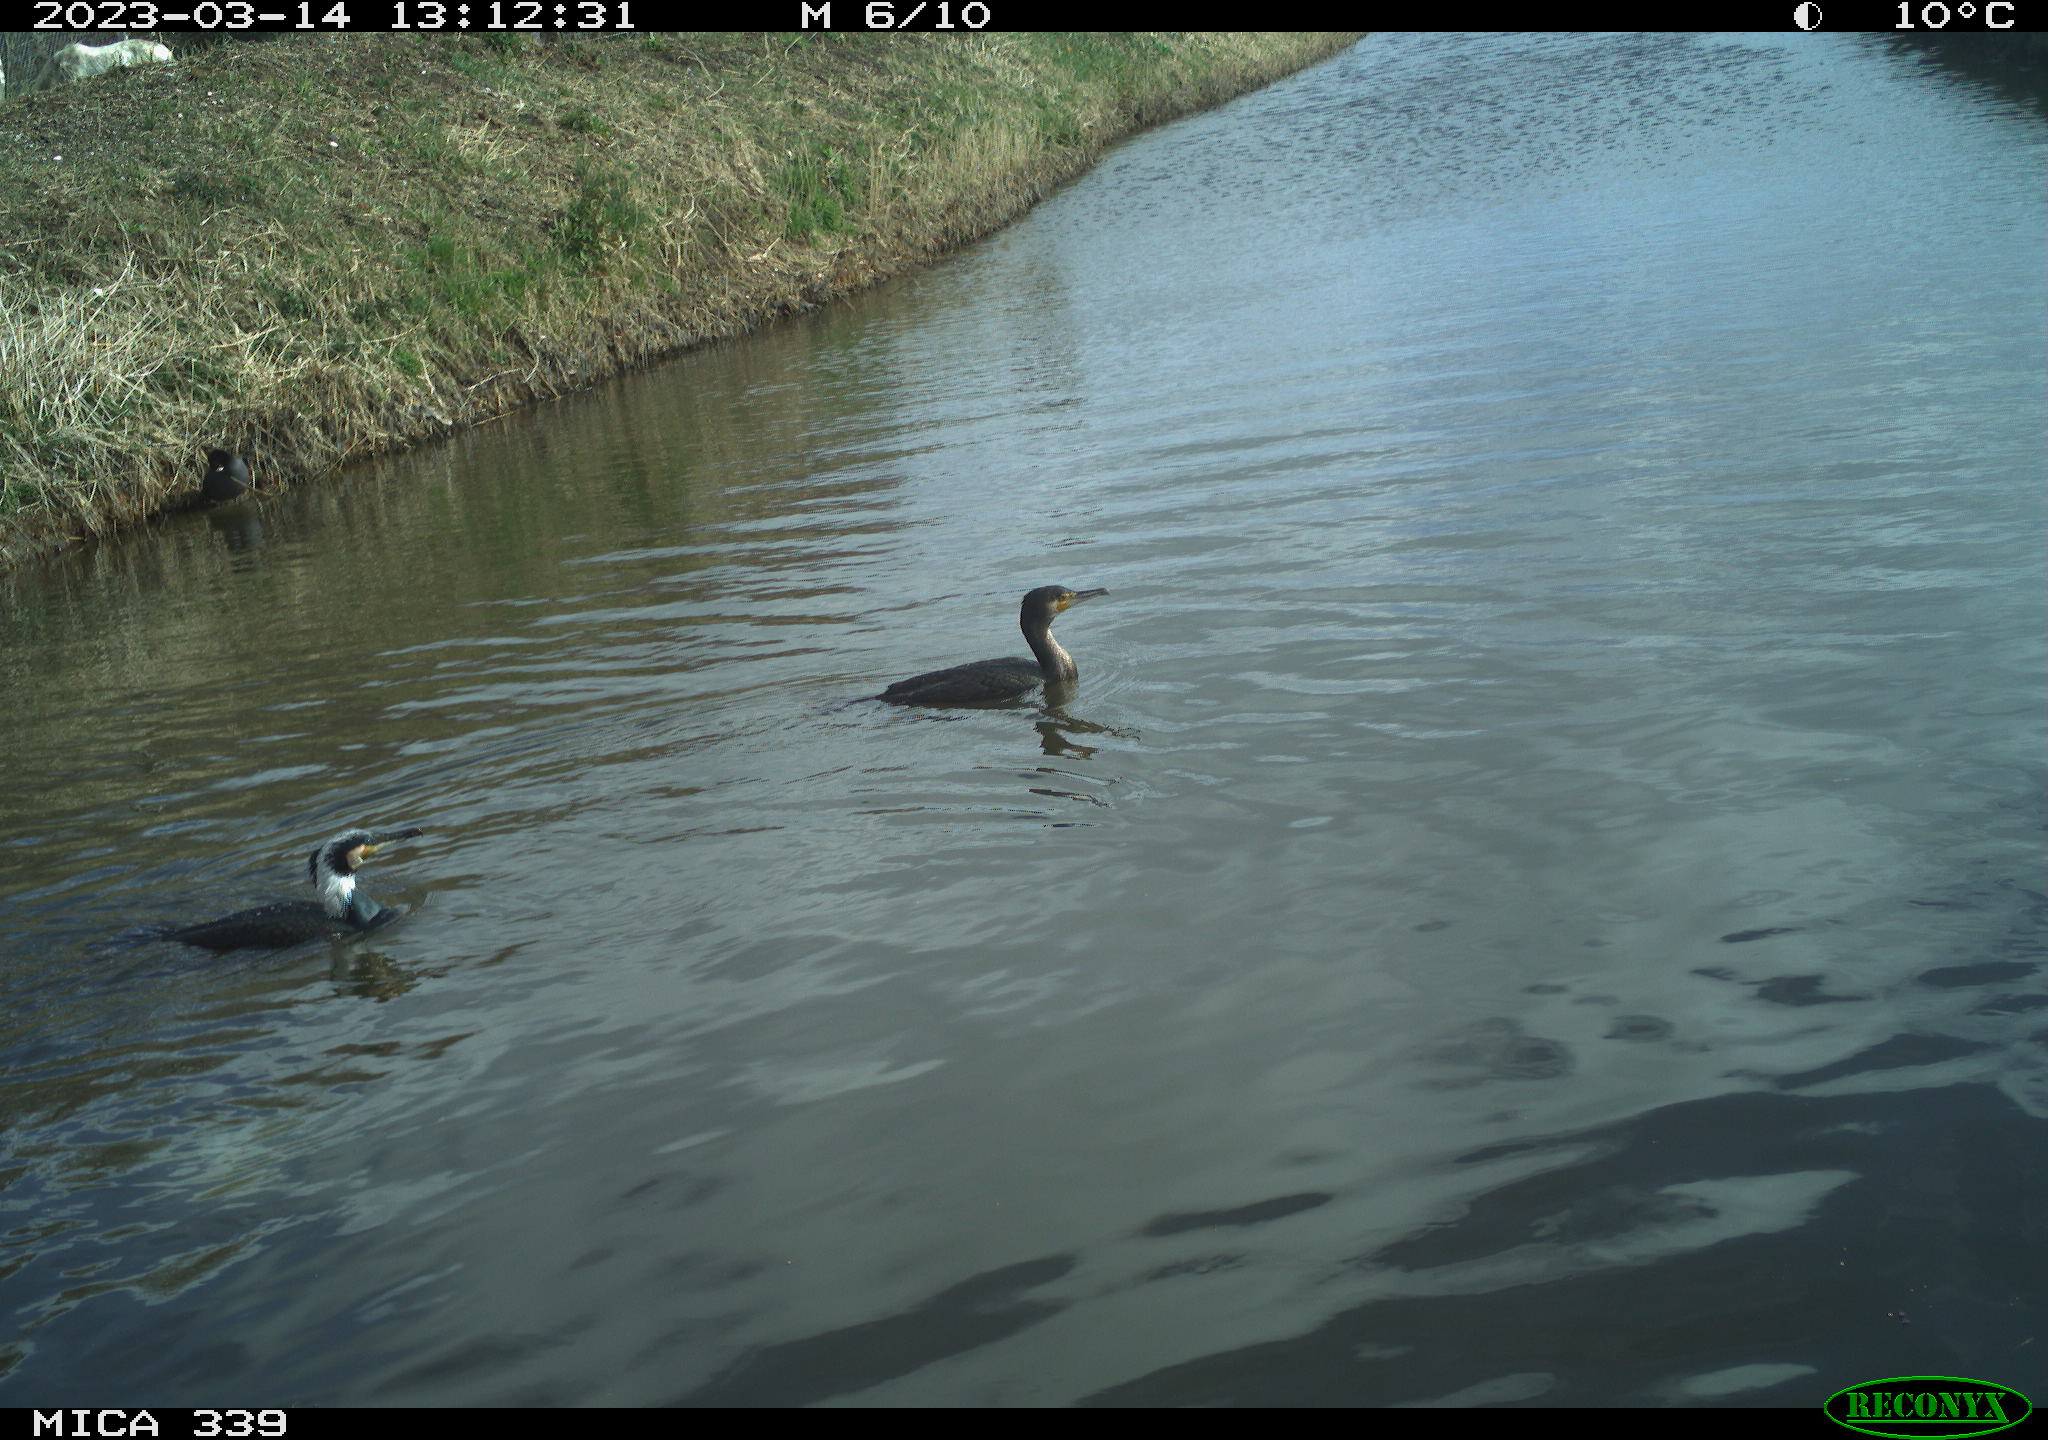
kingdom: Animalia
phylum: Chordata
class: Aves
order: Suliformes
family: Phalacrocoracidae
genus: Phalacrocorax
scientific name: Phalacrocorax carbo
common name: Great cormorant
